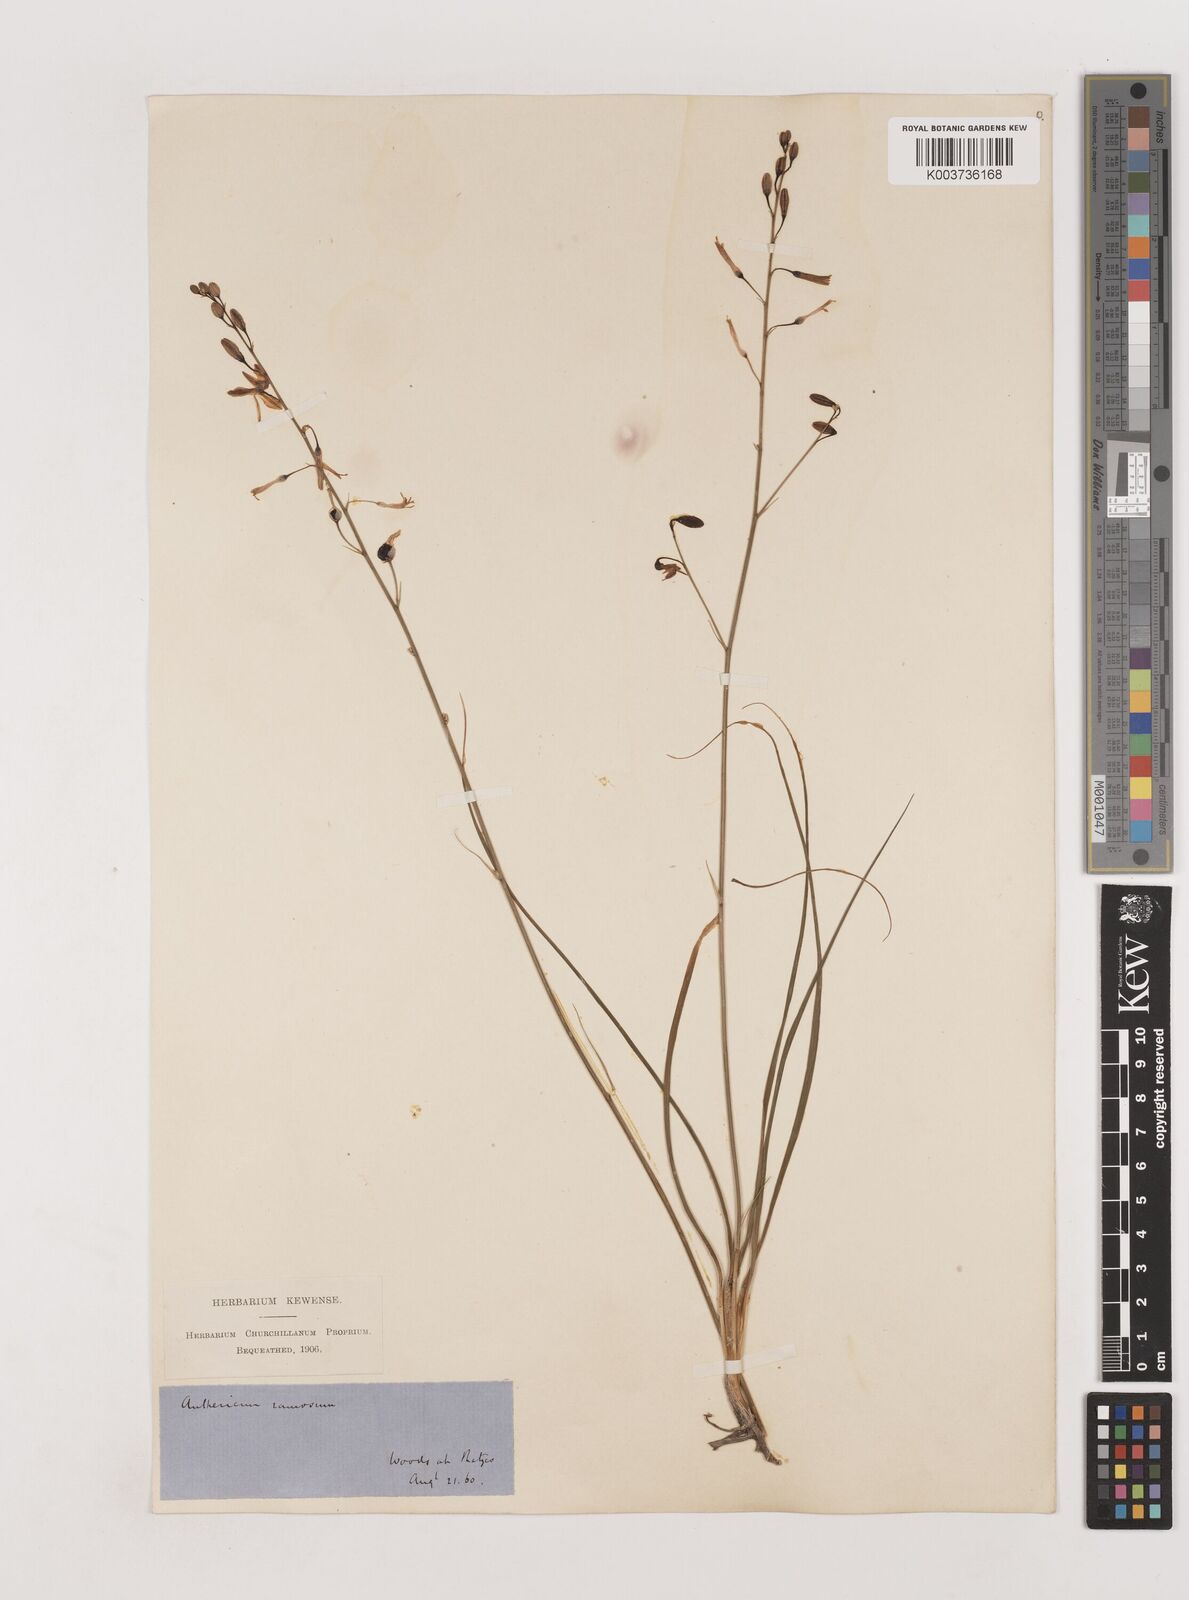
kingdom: Plantae
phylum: Tracheophyta
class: Liliopsida
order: Asparagales
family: Asparagaceae
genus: Anthericum
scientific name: Anthericum ramosum
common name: Branched st. bernard's-lily
